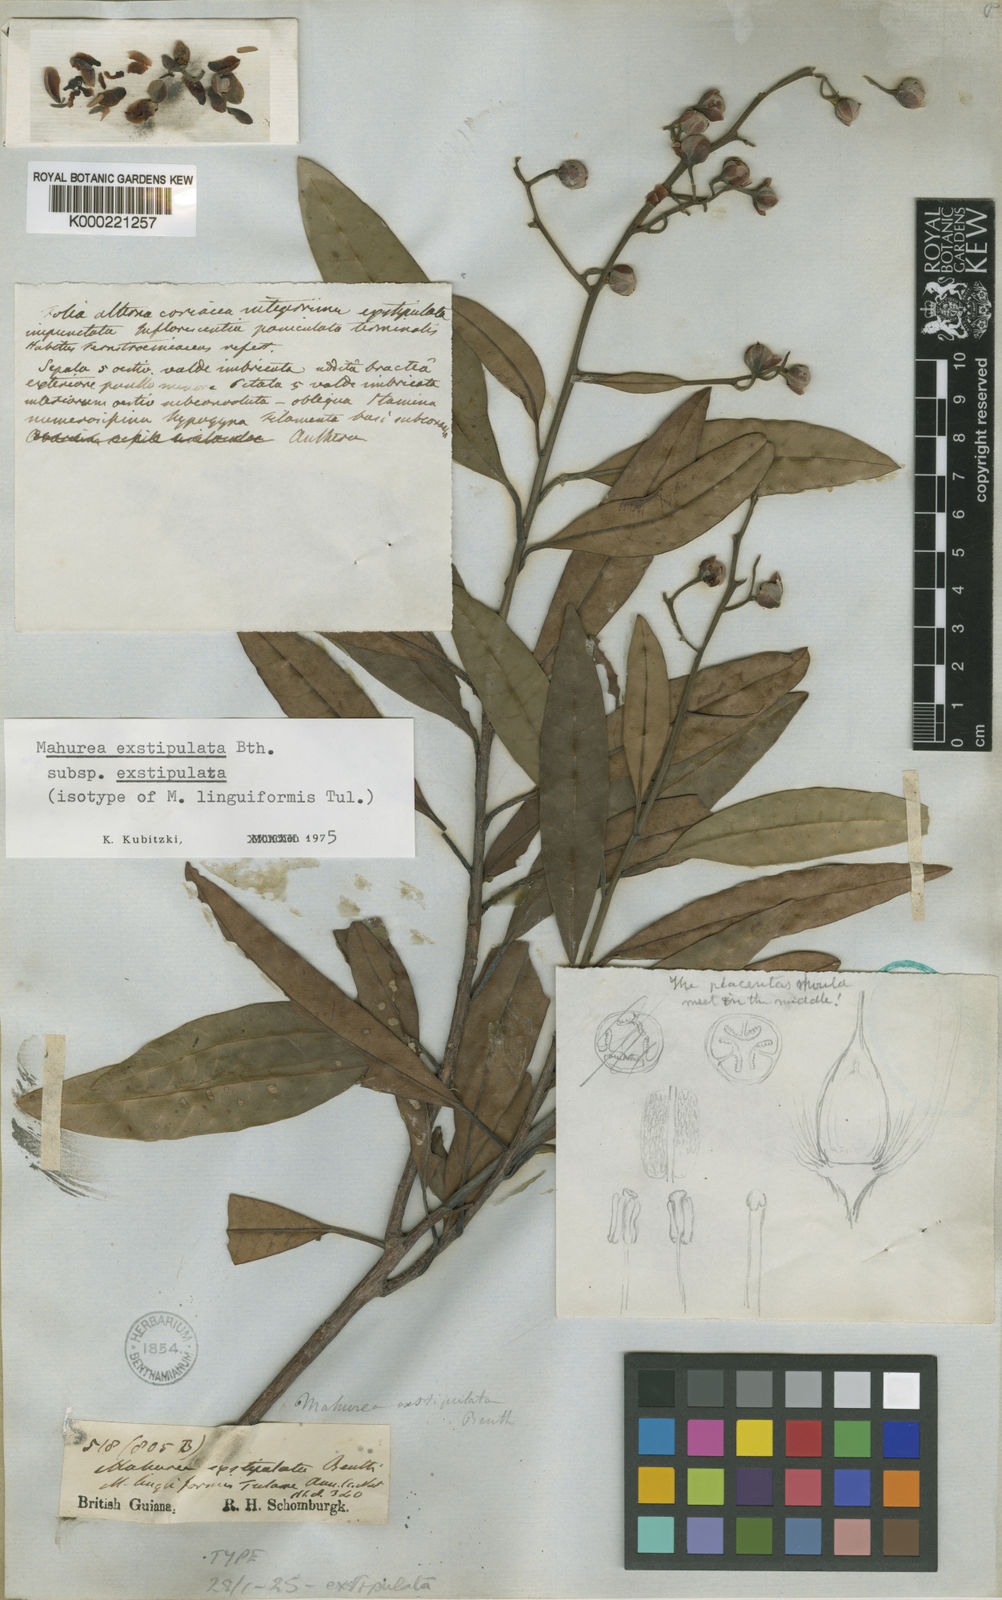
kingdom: Plantae
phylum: Tracheophyta
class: Magnoliopsida
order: Malpighiales
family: Calophyllaceae
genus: Mahurea
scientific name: Mahurea exstipulata
